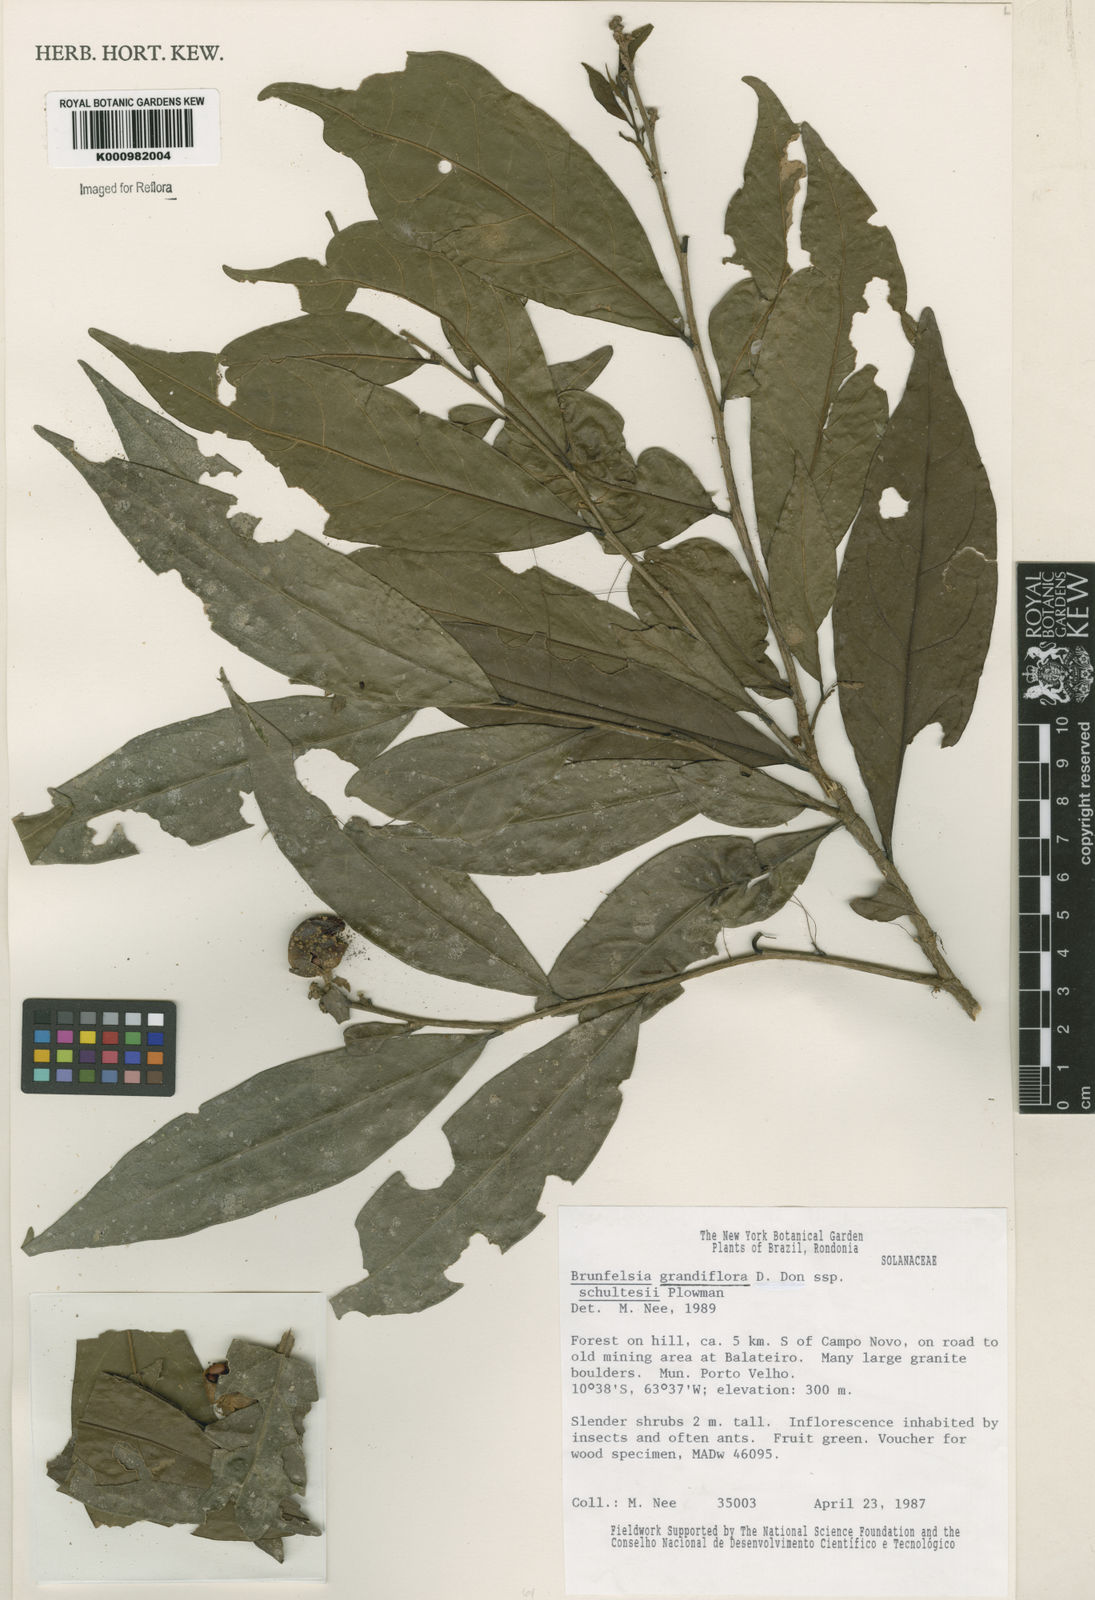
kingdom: Plantae
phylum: Tracheophyta
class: Magnoliopsida
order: Solanales
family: Solanaceae
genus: Brunfelsia
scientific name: Brunfelsia grandiflora
